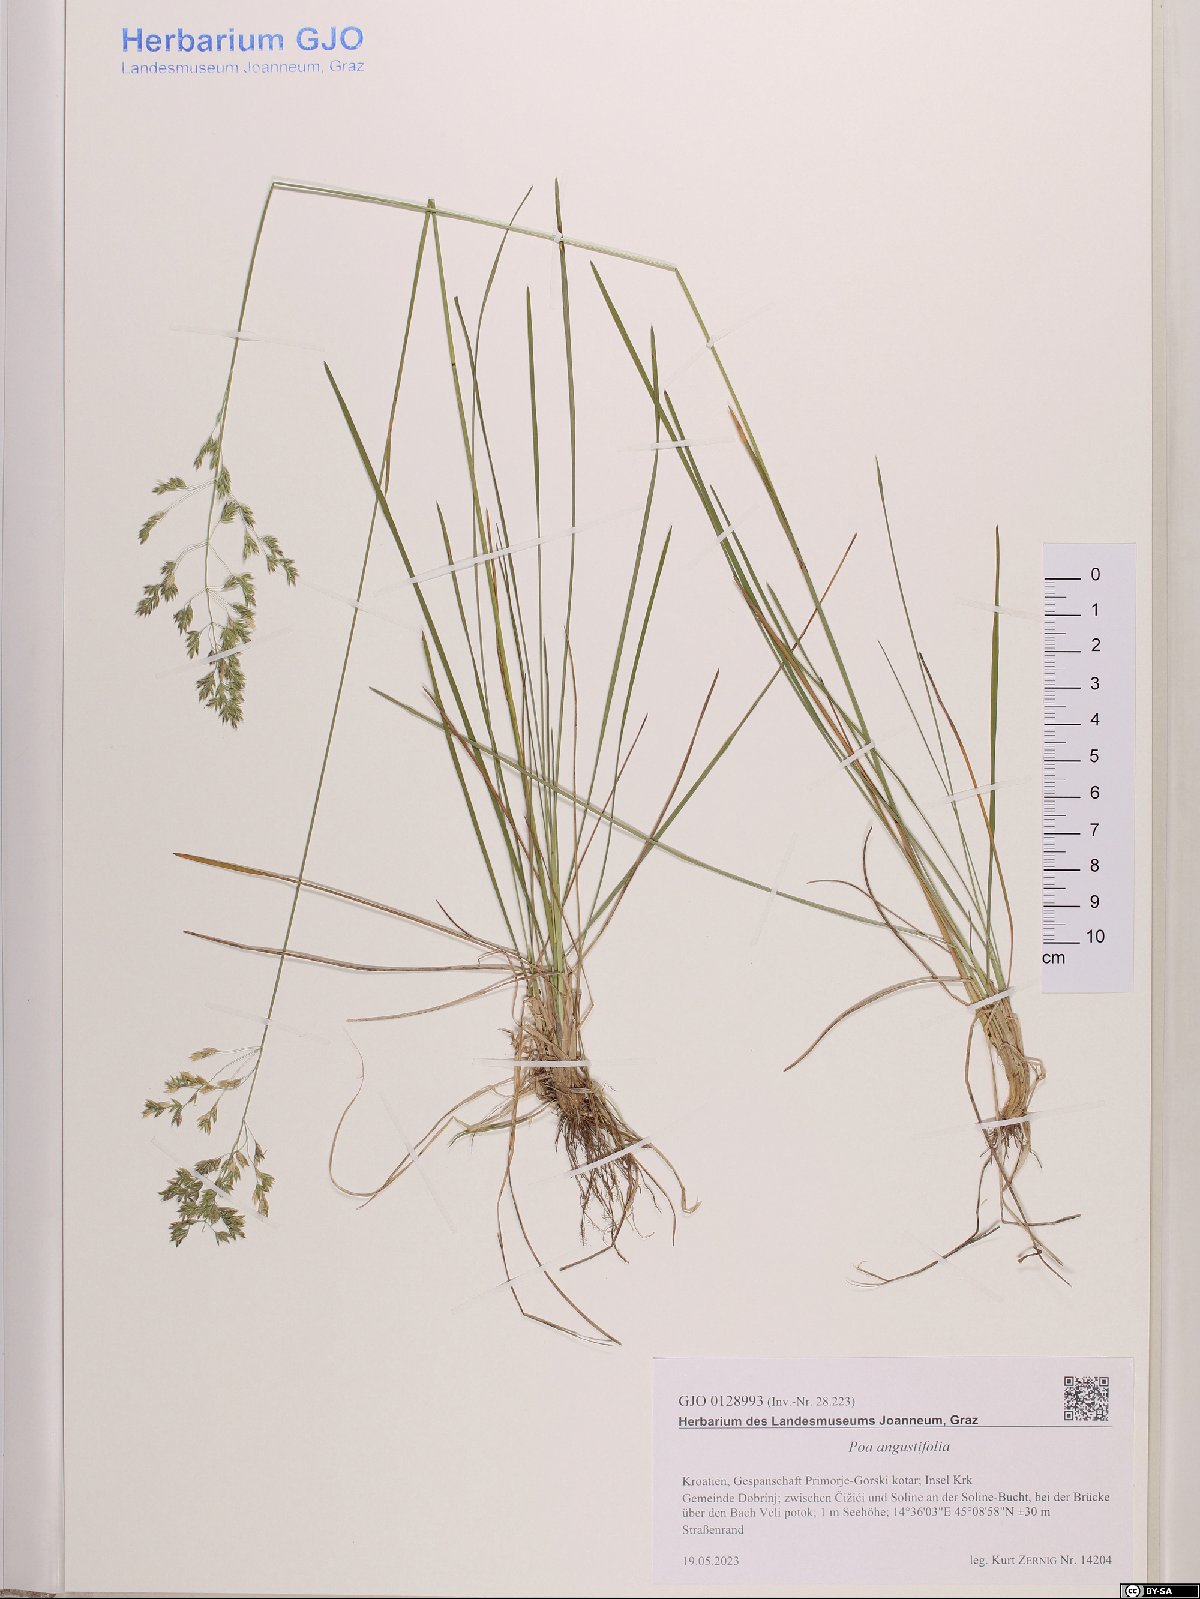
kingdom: Plantae
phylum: Tracheophyta
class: Liliopsida
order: Poales
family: Poaceae
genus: Poa
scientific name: Poa angustifolia
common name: Narrow-leaved meadow-grass
